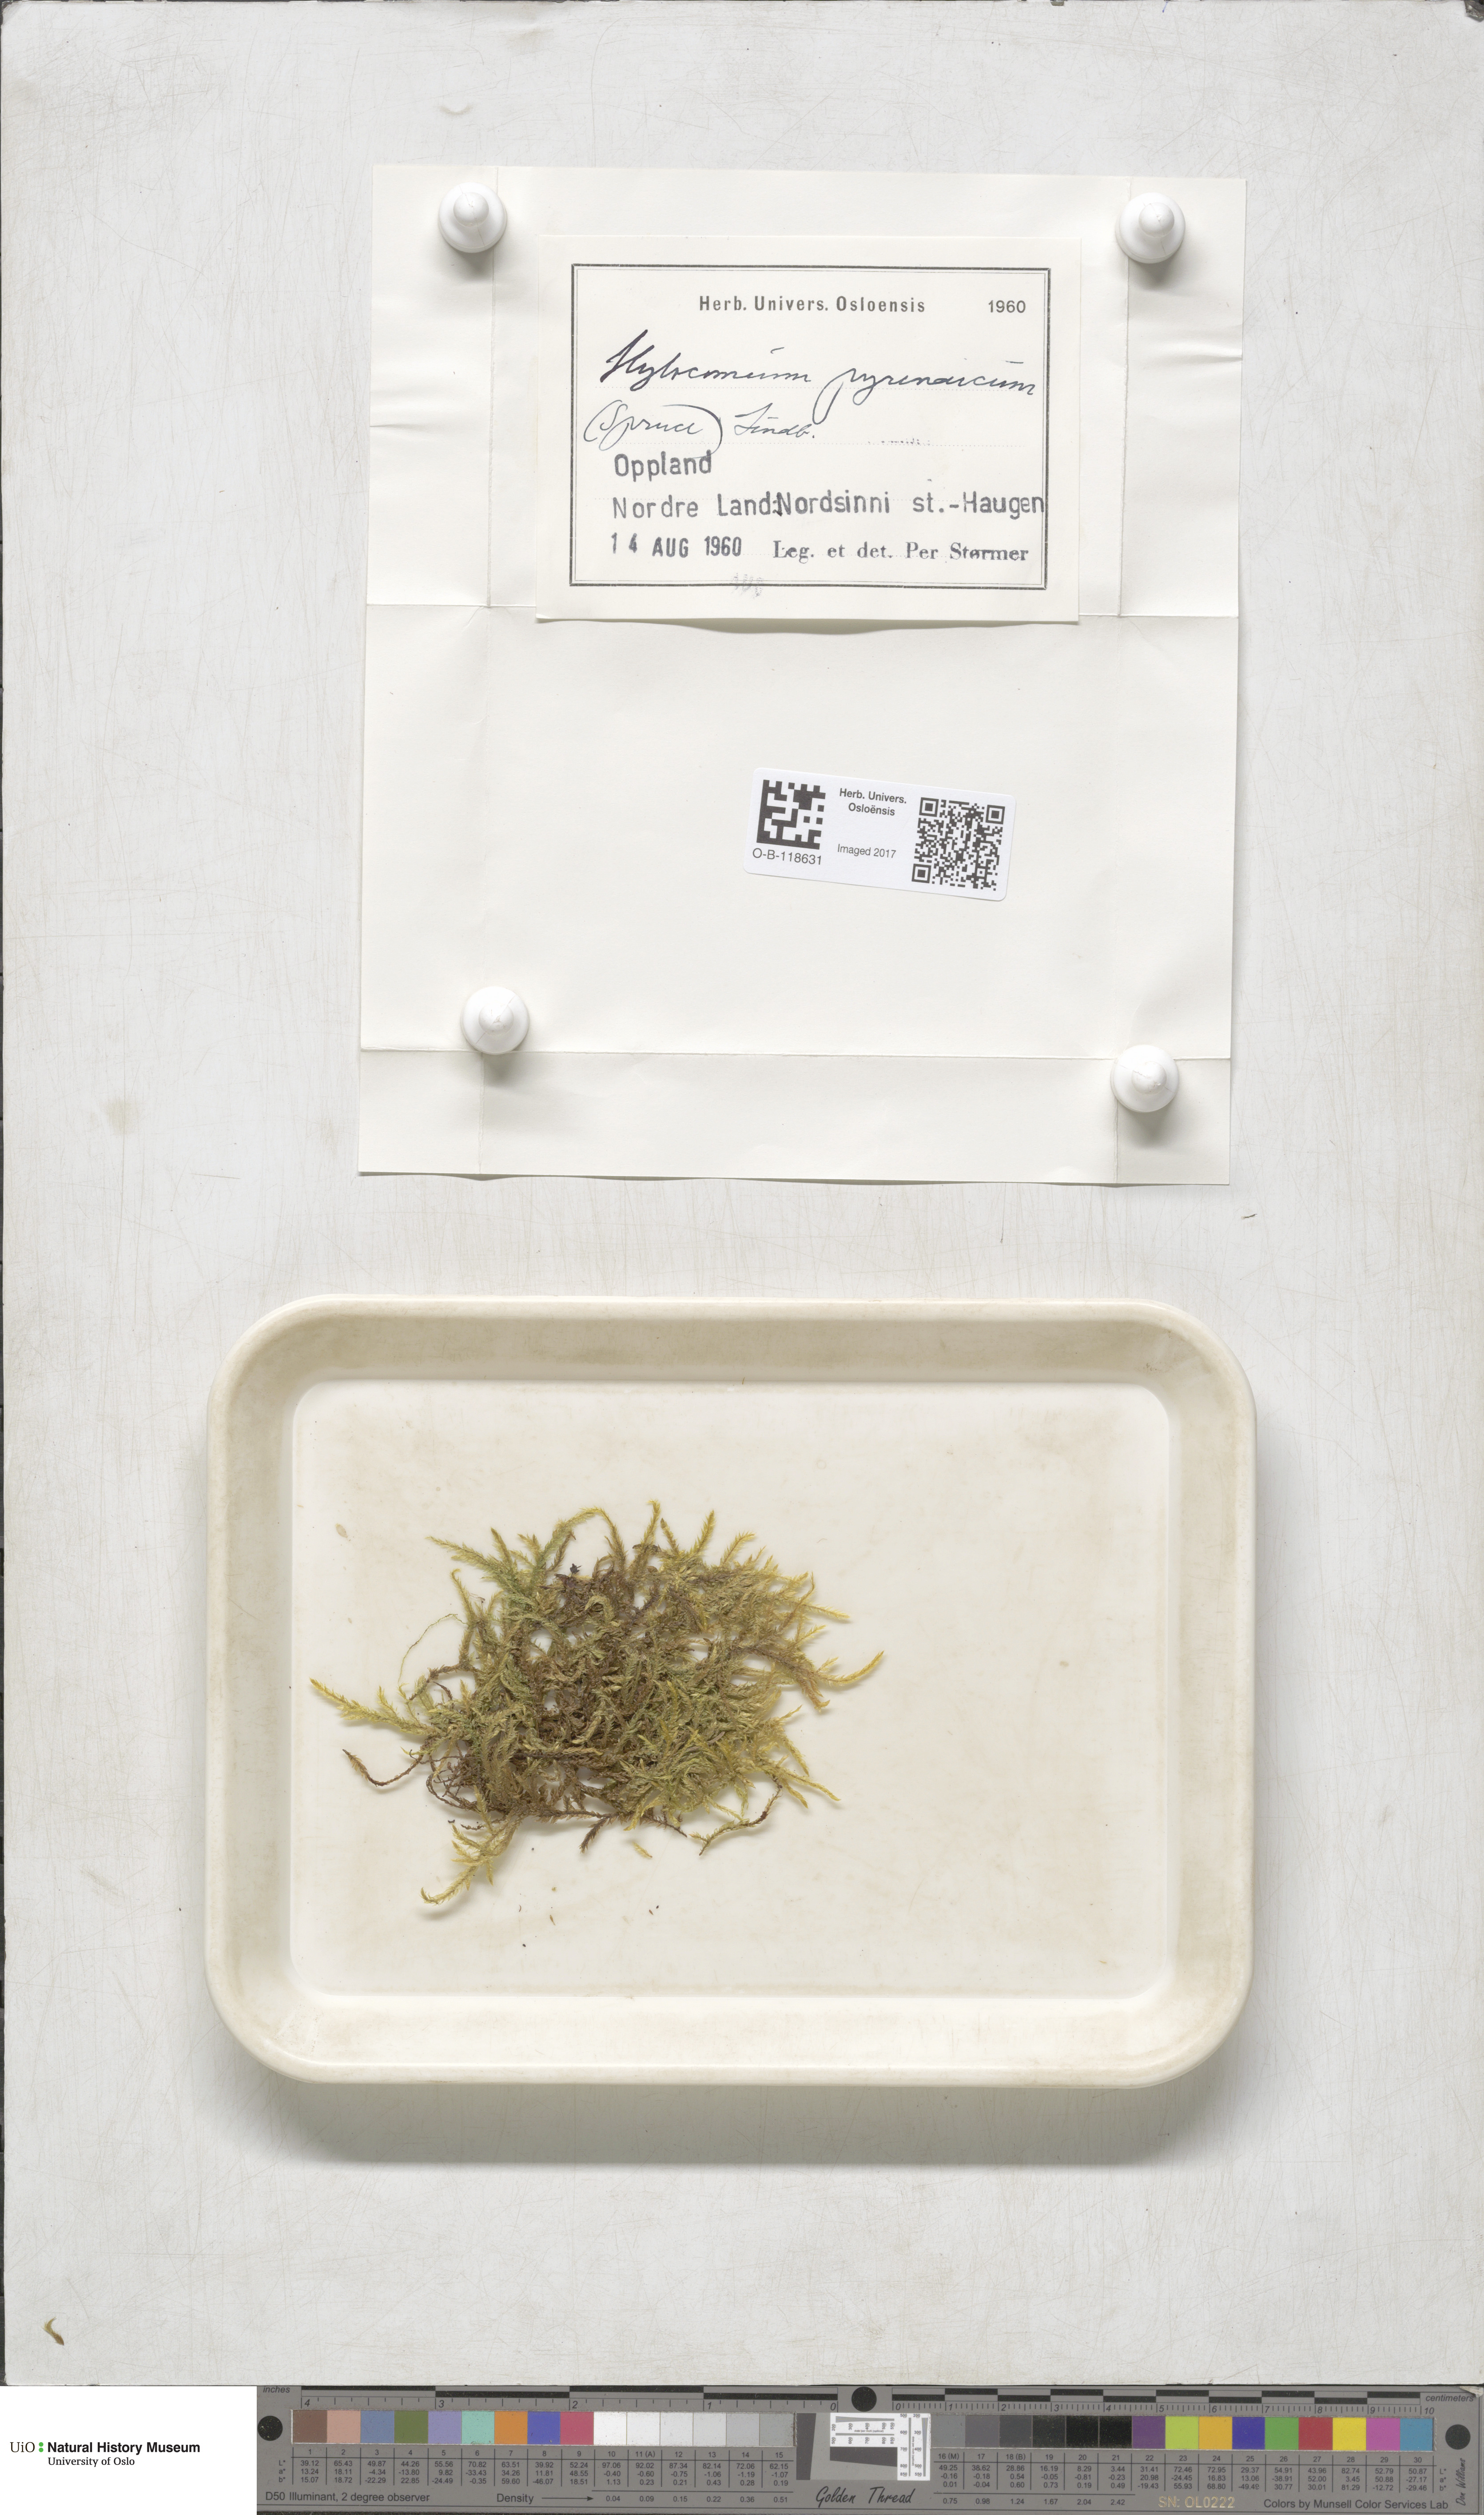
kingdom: Plantae
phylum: Bryophyta
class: Bryopsida
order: Hypnales
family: Hylocomiaceae
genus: Hylocomiastrum
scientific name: Hylocomiastrum pyrenaicum
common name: Oake s wood moss
